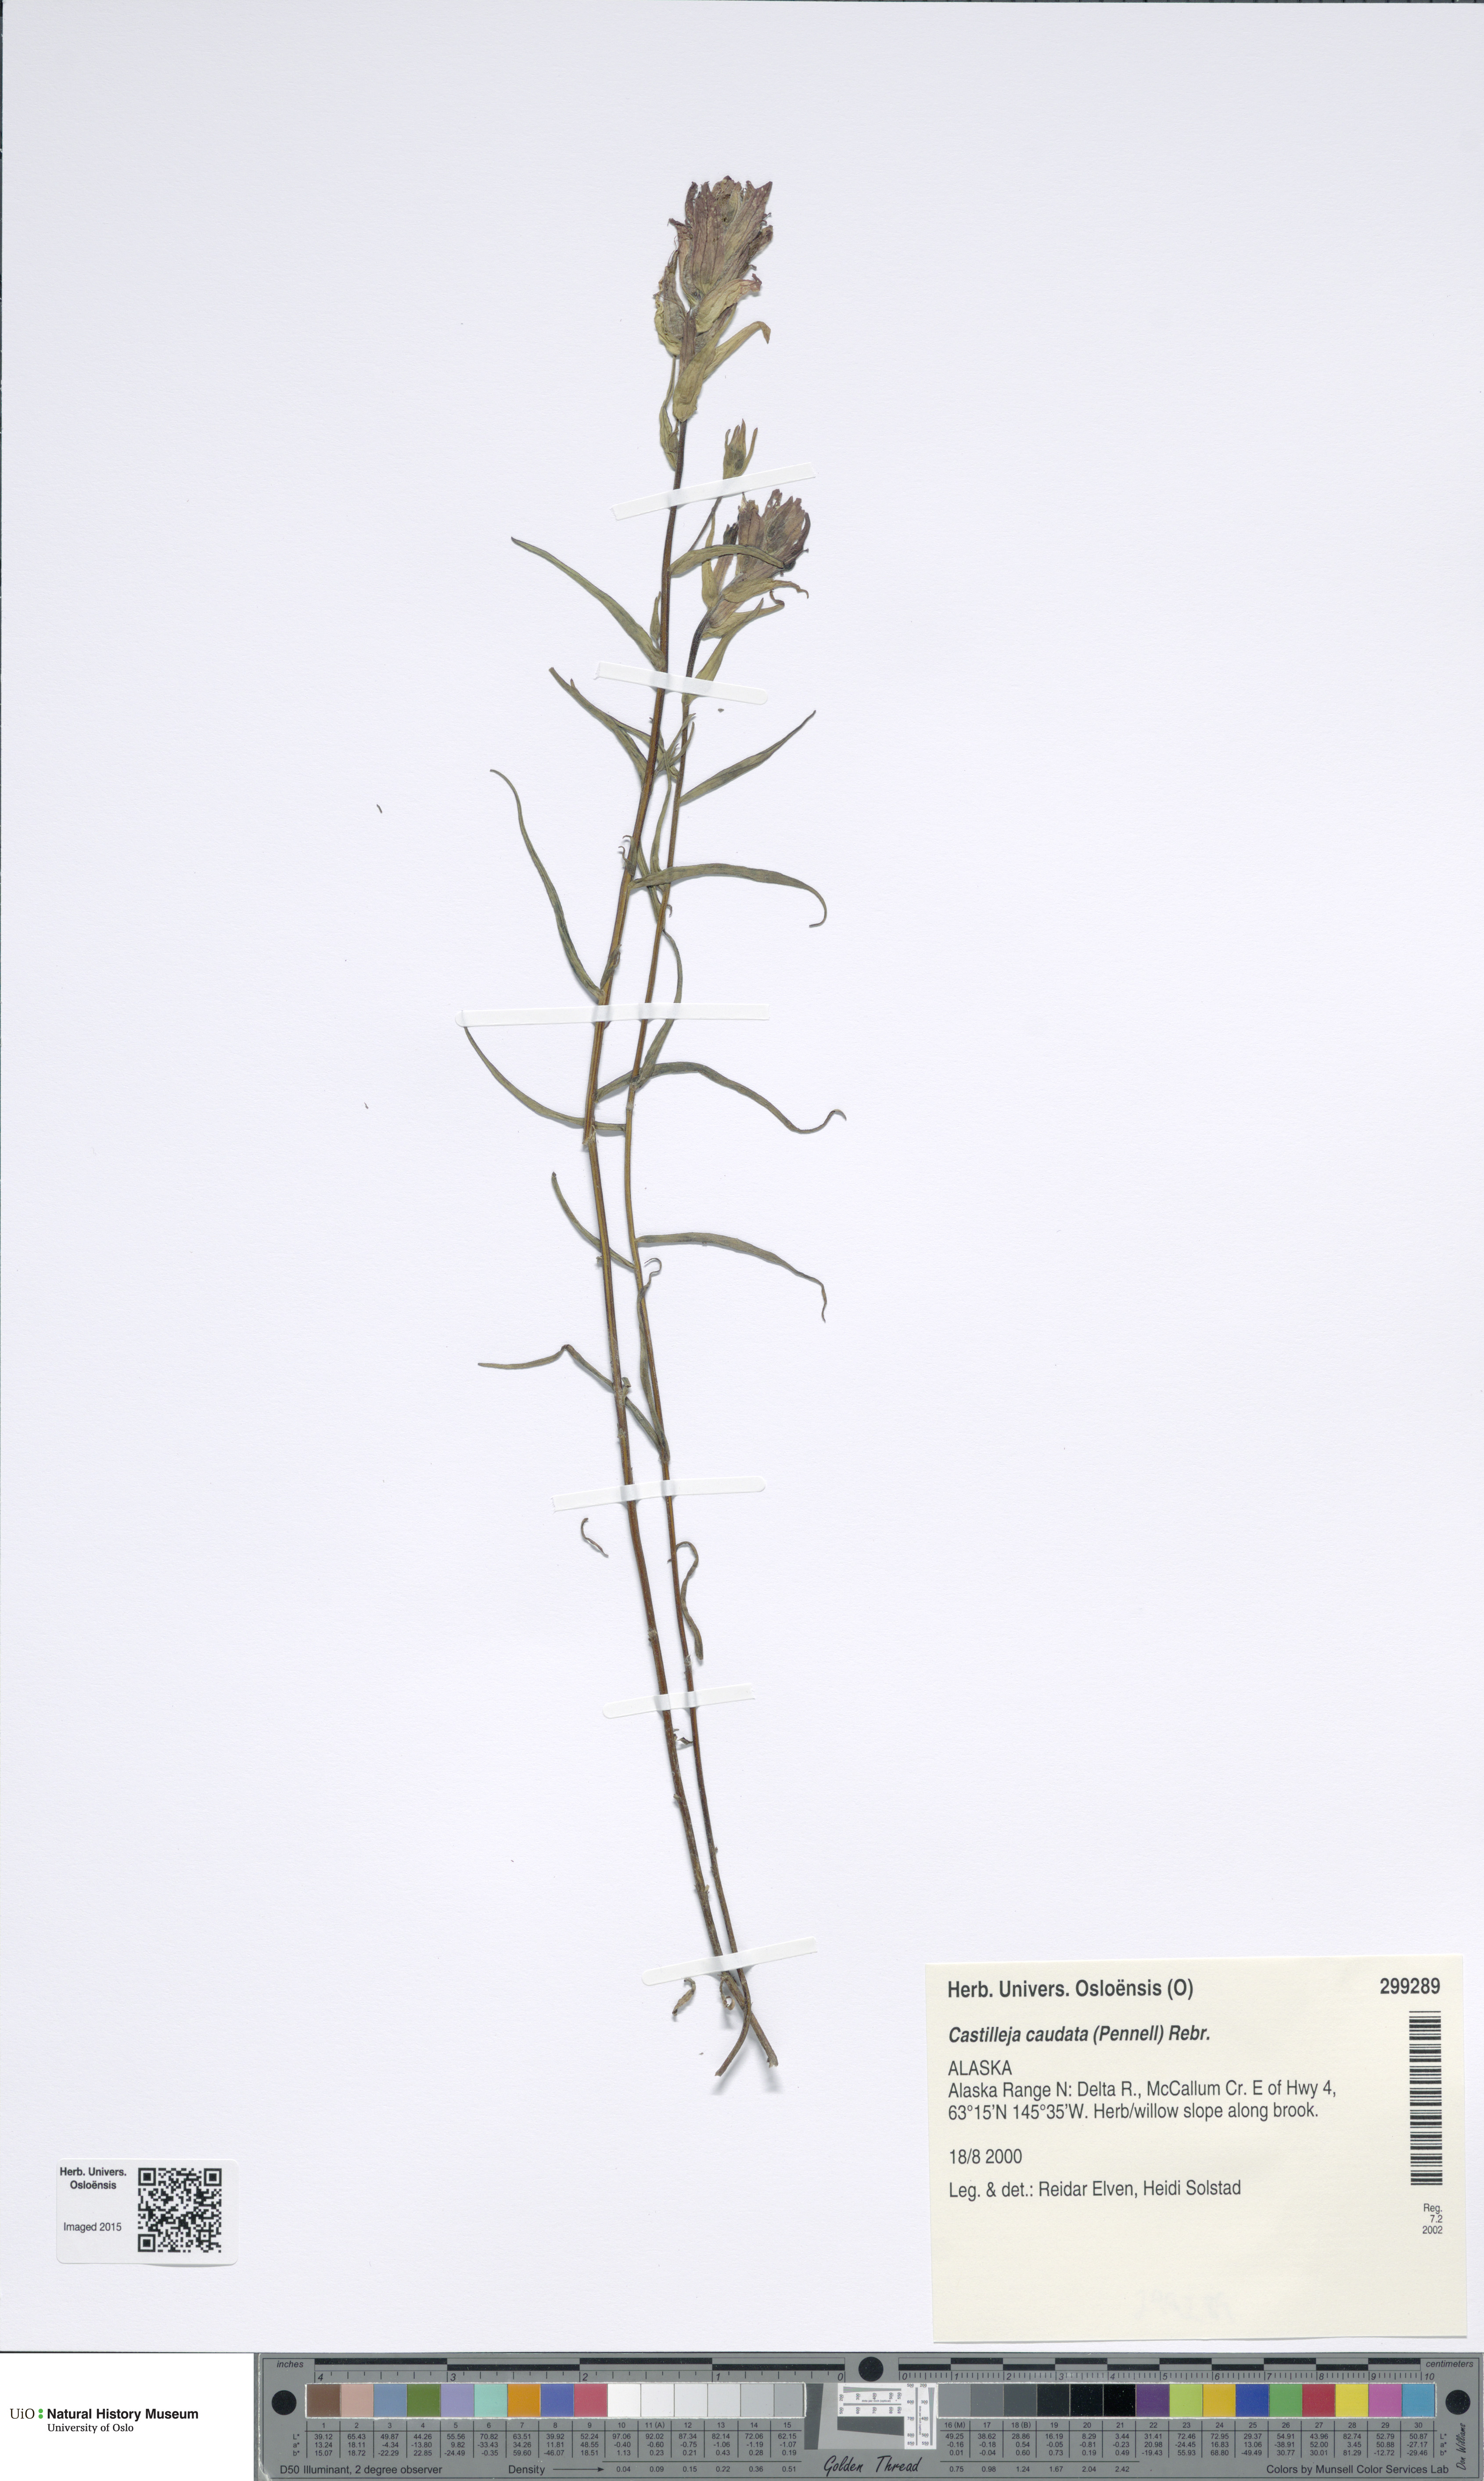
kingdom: Plantae
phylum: Tracheophyta
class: Magnoliopsida
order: Lamiales
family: Orobanchaceae
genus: Castilleja
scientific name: Castilleja pallida
